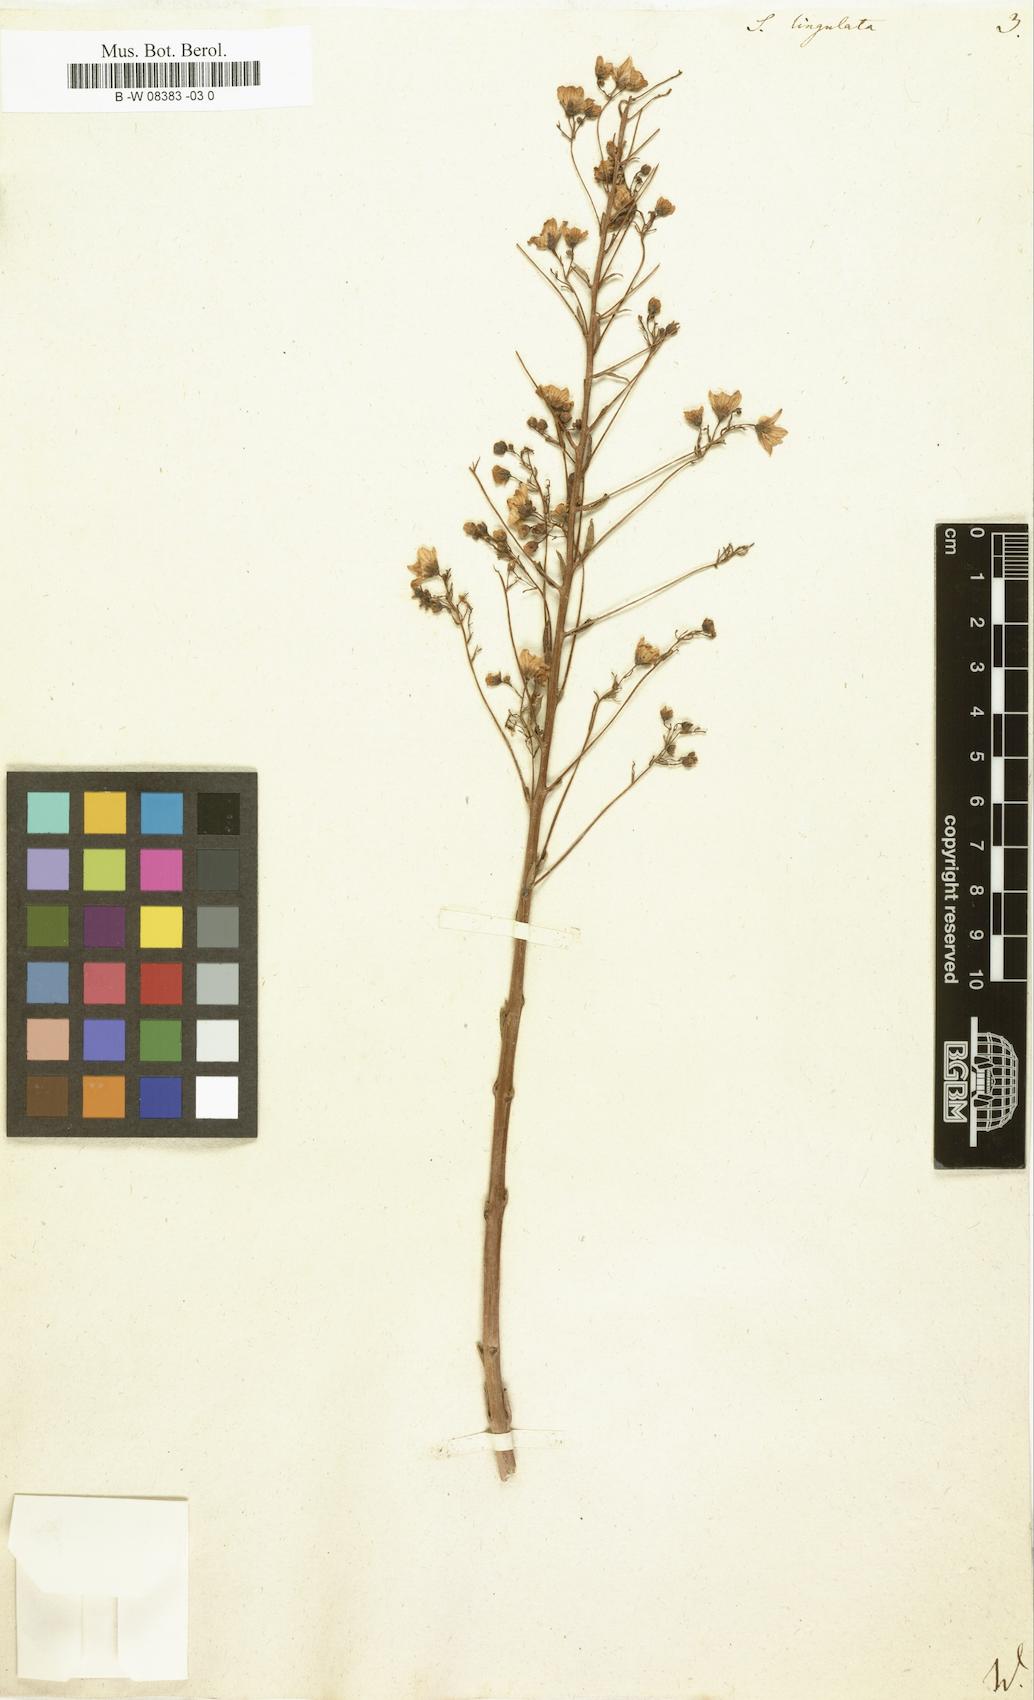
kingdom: Plantae
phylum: Tracheophyta
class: Magnoliopsida
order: Saxifragales
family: Saxifragaceae
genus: Saxifraga
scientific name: Saxifraga
